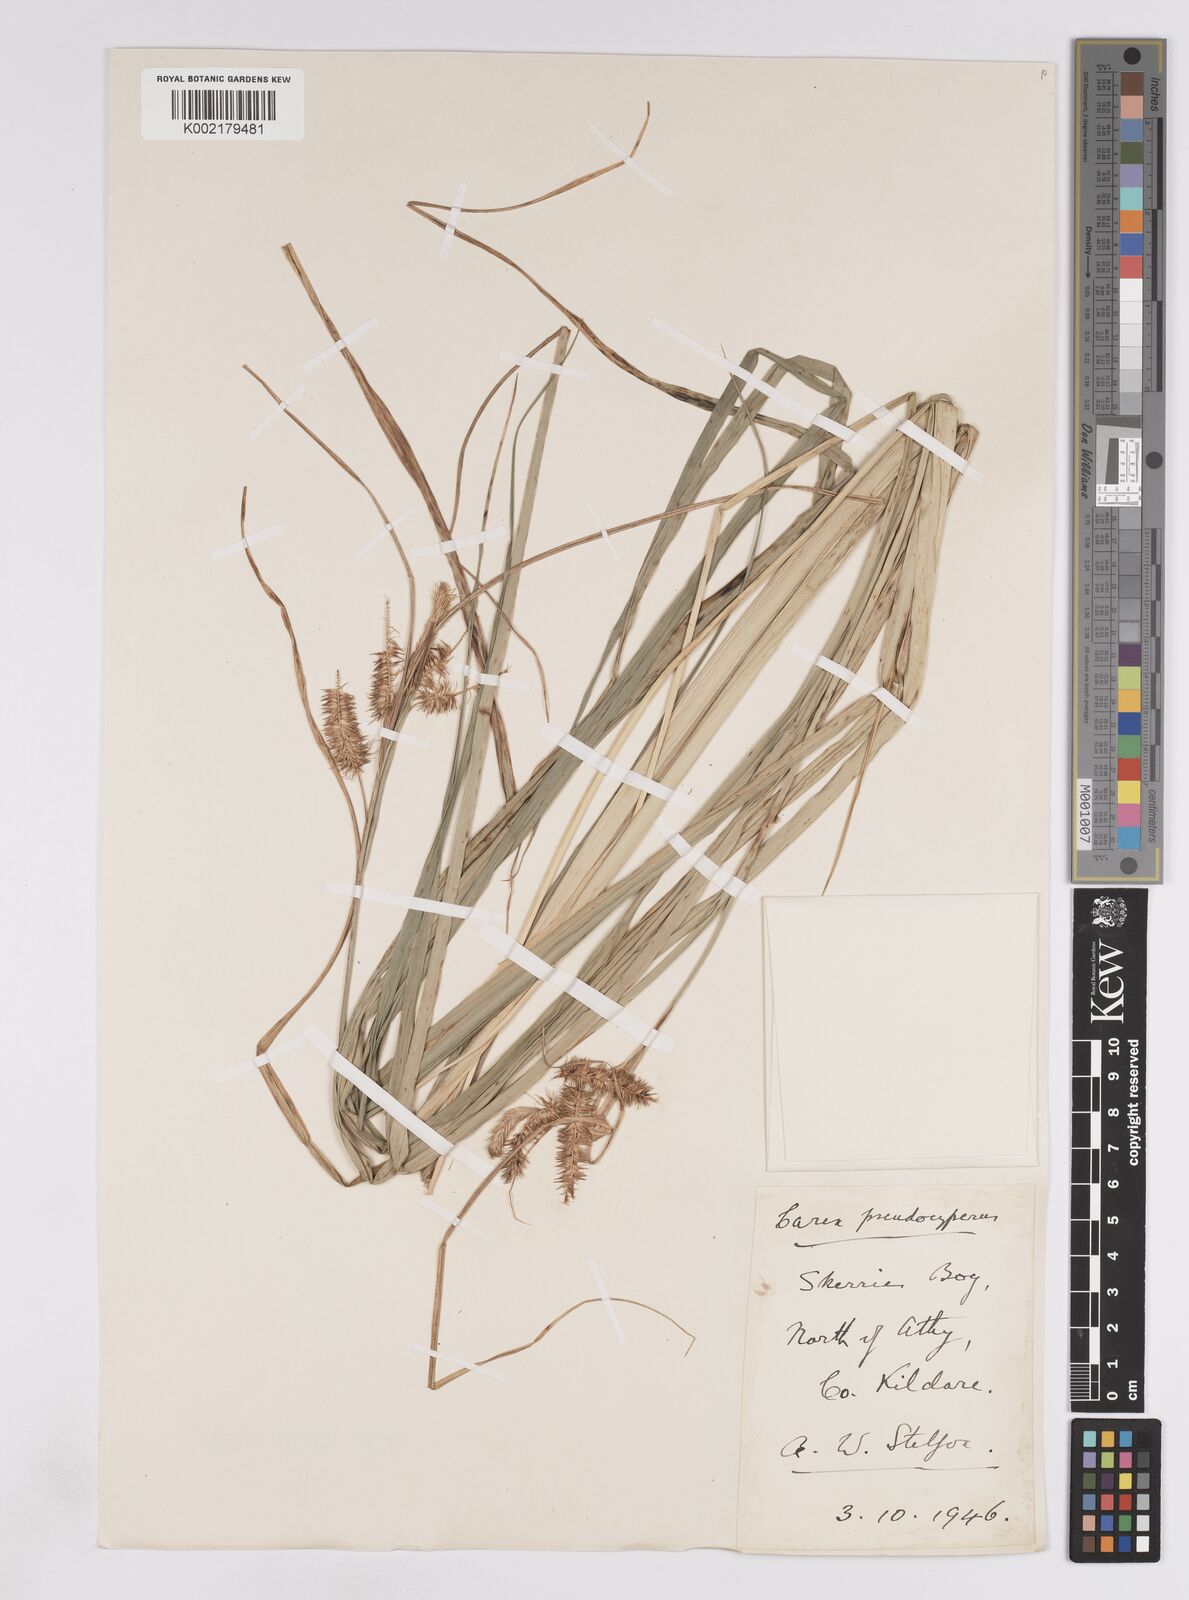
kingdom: Plantae
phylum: Tracheophyta
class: Liliopsida
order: Poales
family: Cyperaceae
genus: Carex
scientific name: Carex pseudocyperus
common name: Cyperus sedge
